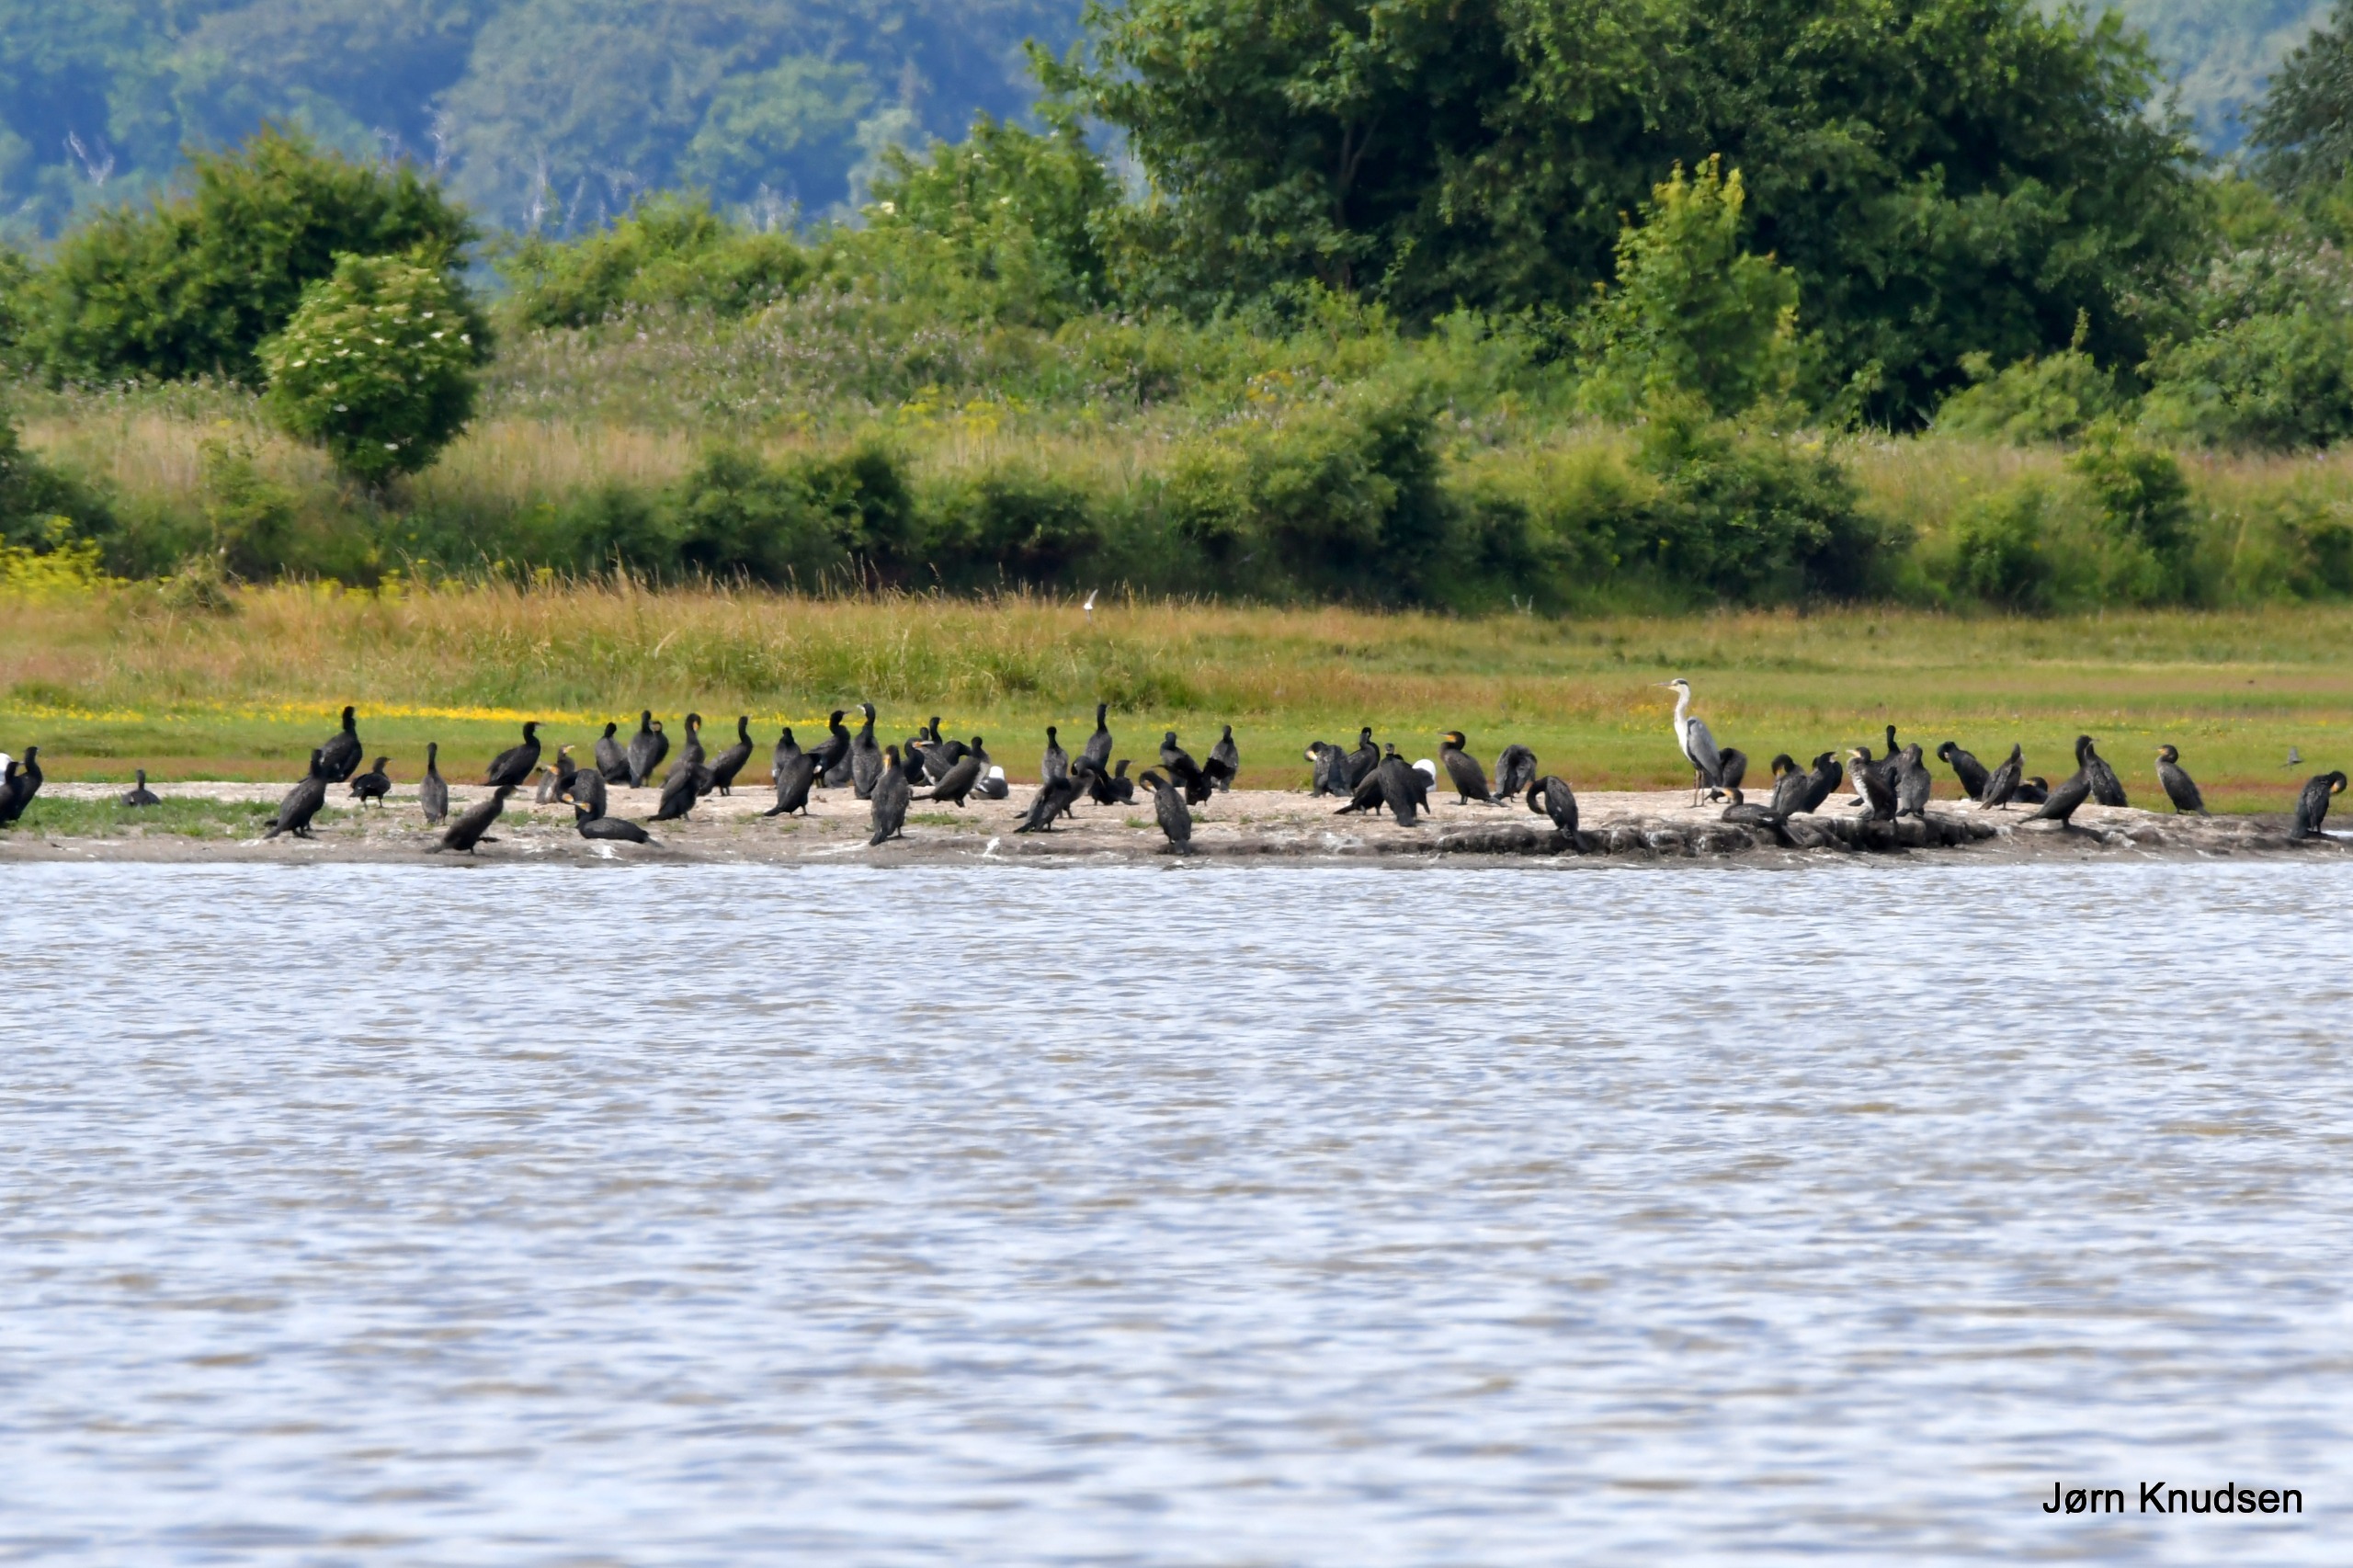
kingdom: Animalia
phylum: Chordata
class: Aves
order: Suliformes
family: Phalacrocoracidae
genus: Phalacrocorax
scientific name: Phalacrocorax carbo
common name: Skarv
